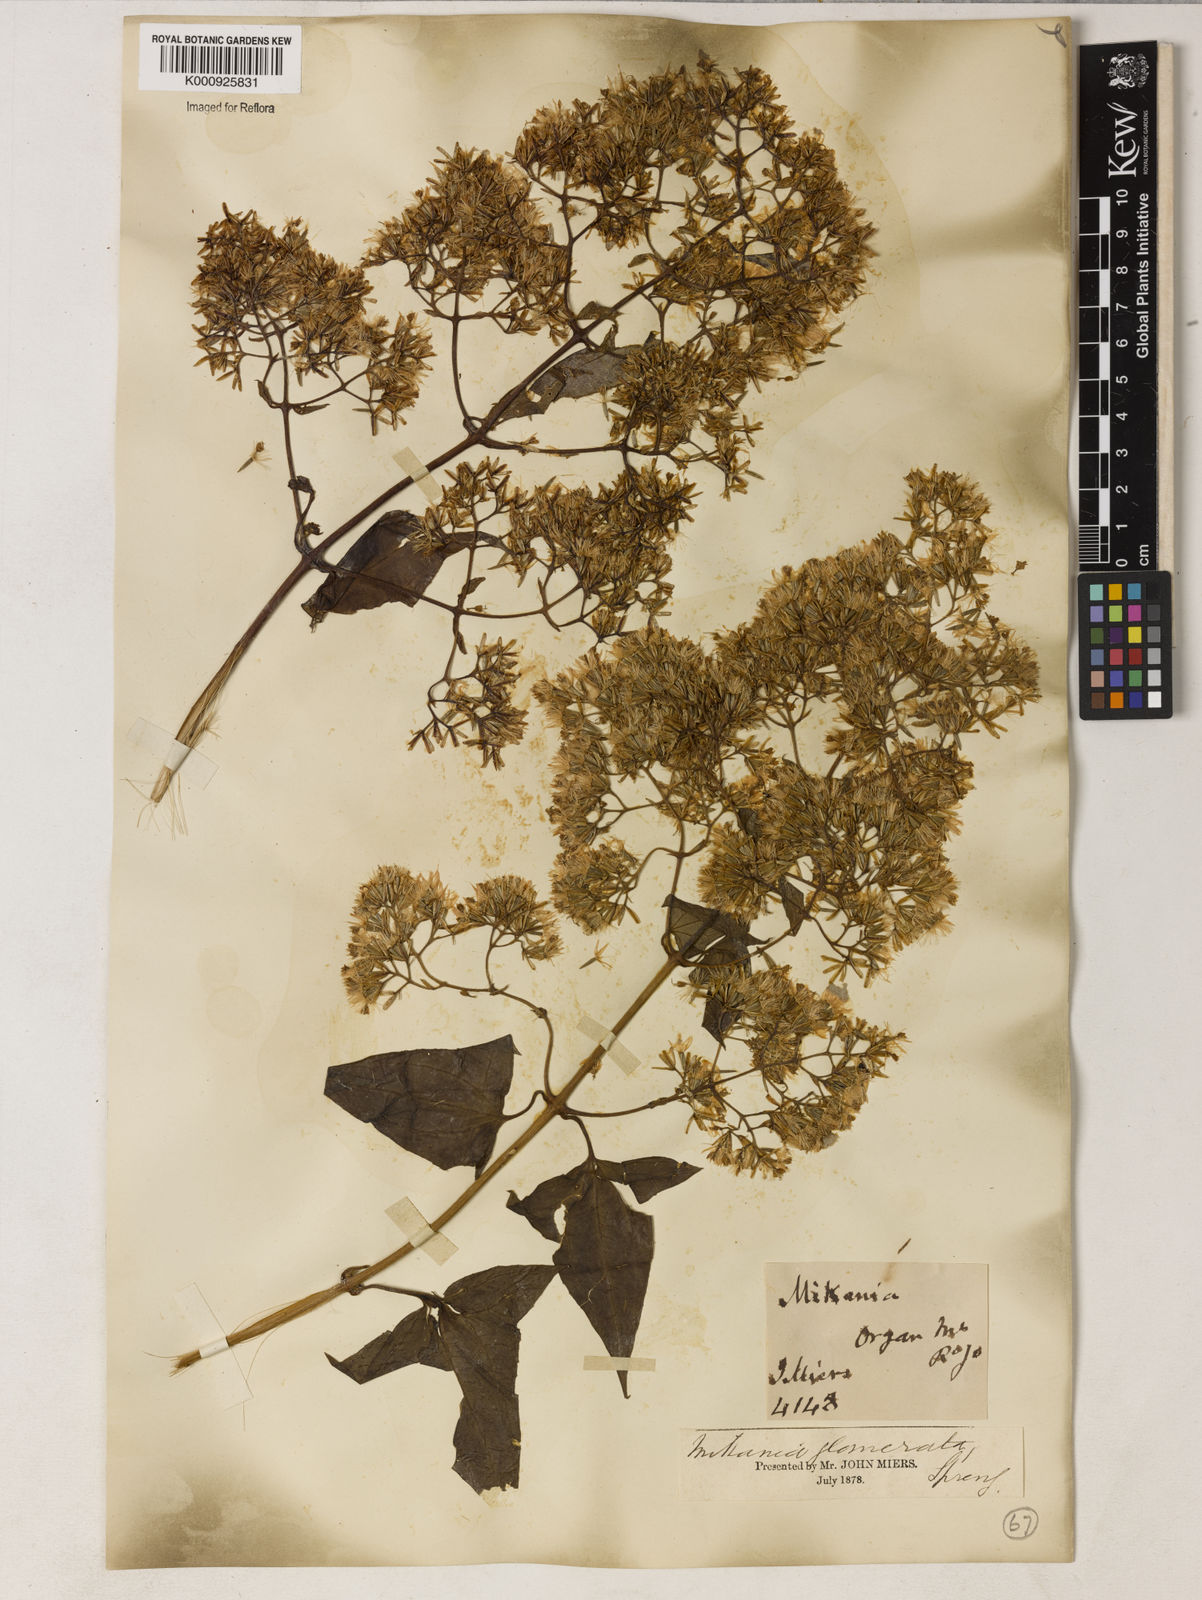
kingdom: Plantae
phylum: Tracheophyta
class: Magnoliopsida
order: Asterales
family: Asteraceae
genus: Mikania
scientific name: Mikania glomerata
